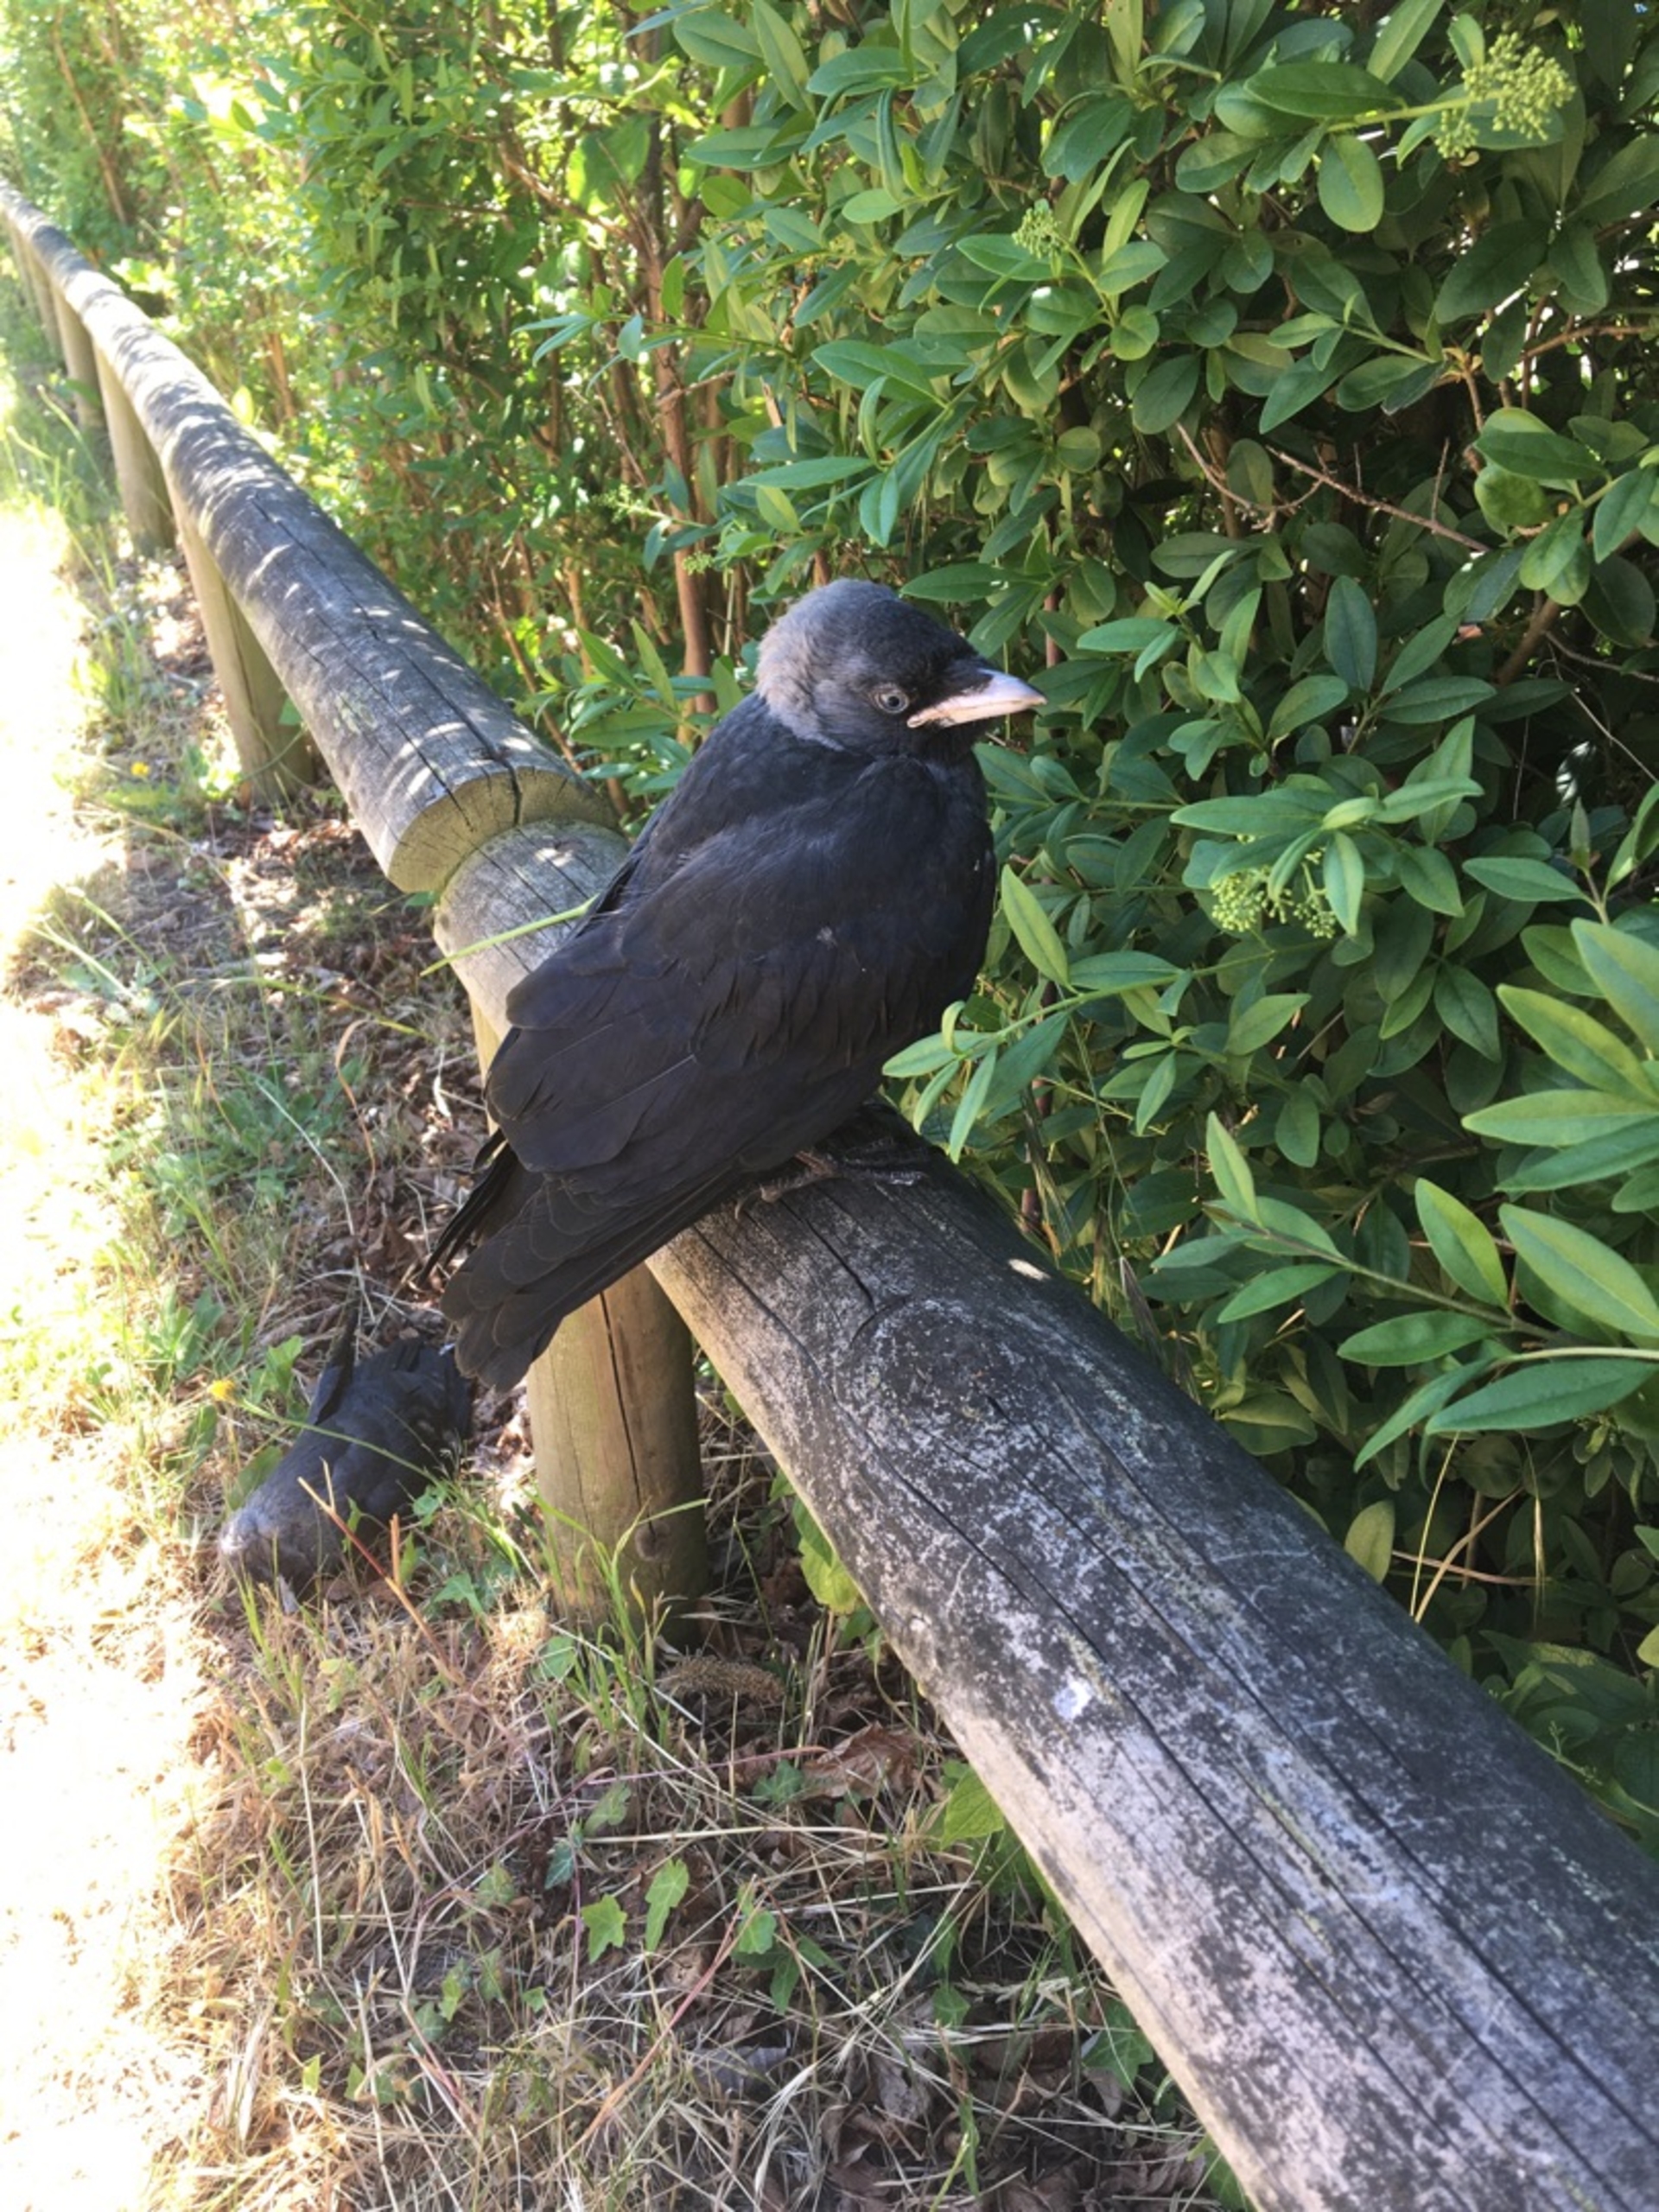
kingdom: Animalia
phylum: Chordata
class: Aves
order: Passeriformes
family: Corvidae
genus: Coloeus
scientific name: Coloeus monedula
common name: Allike
